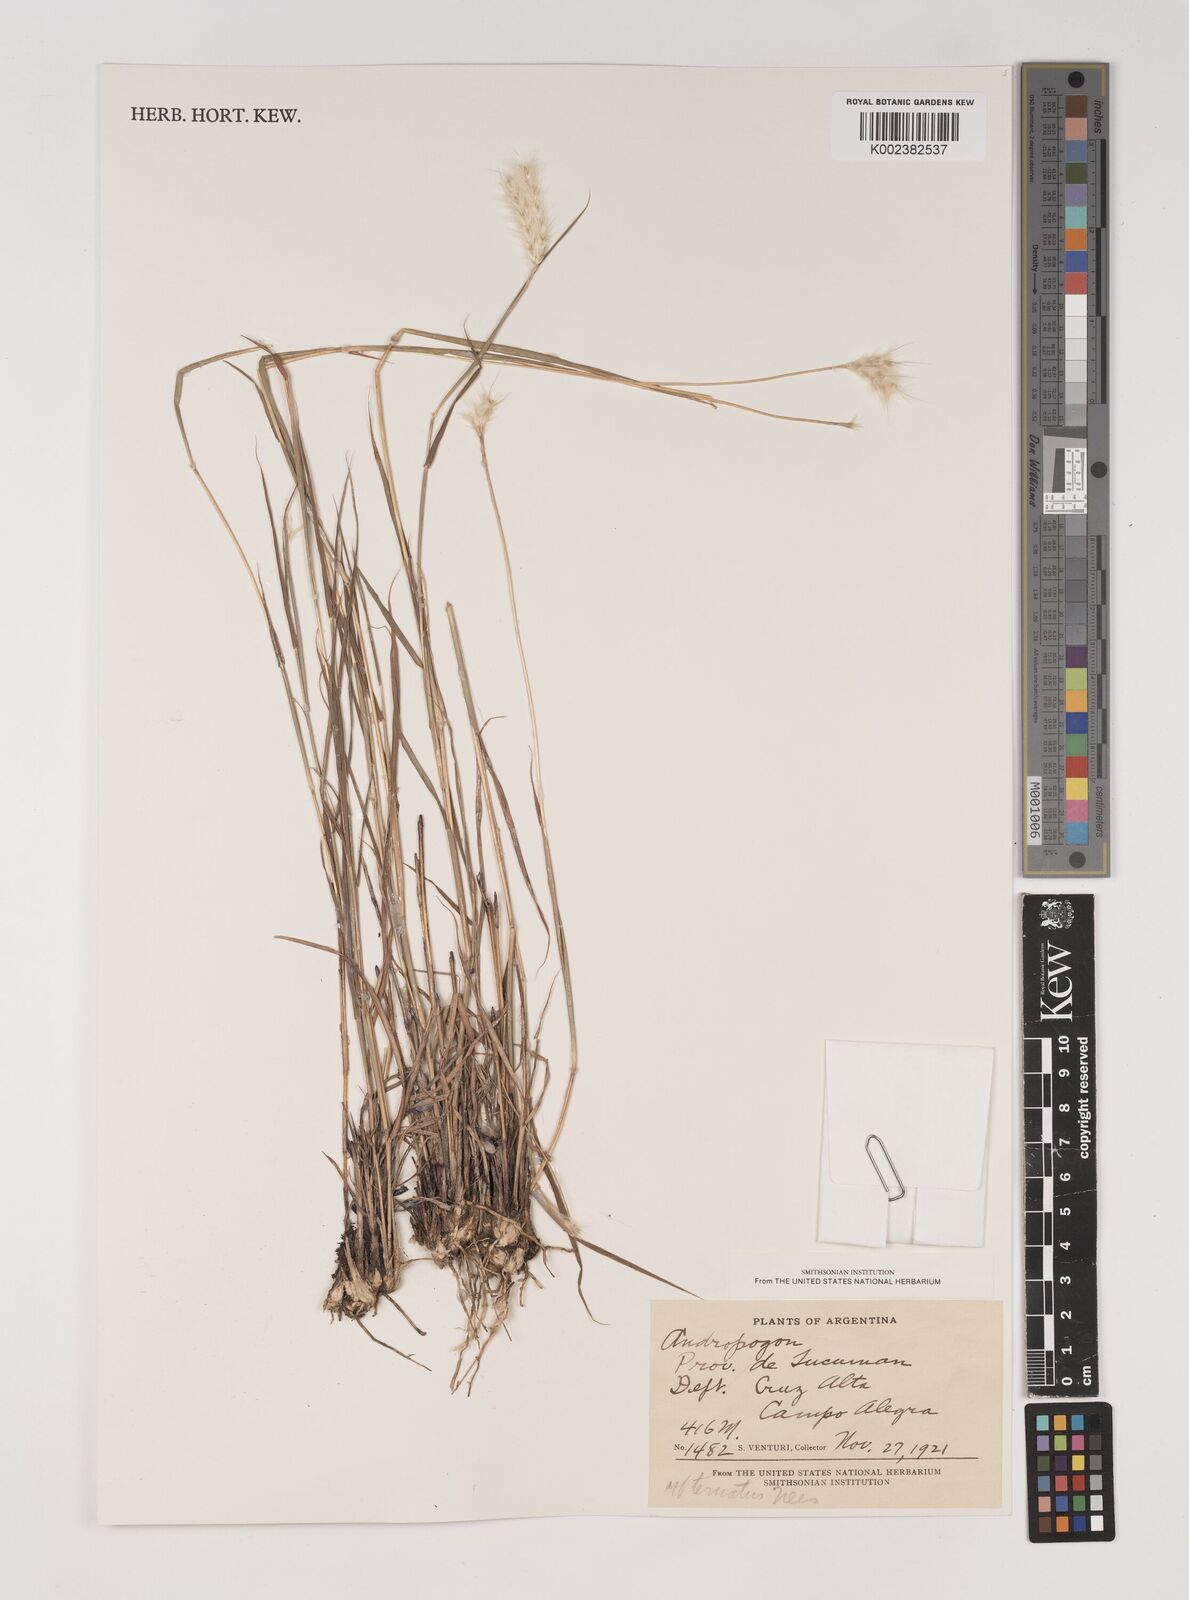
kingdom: Plantae
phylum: Tracheophyta
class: Liliopsida
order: Poales
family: Poaceae
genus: Bothriochloa
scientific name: Bothriochloa springfieldii
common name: Springfield bluestem
